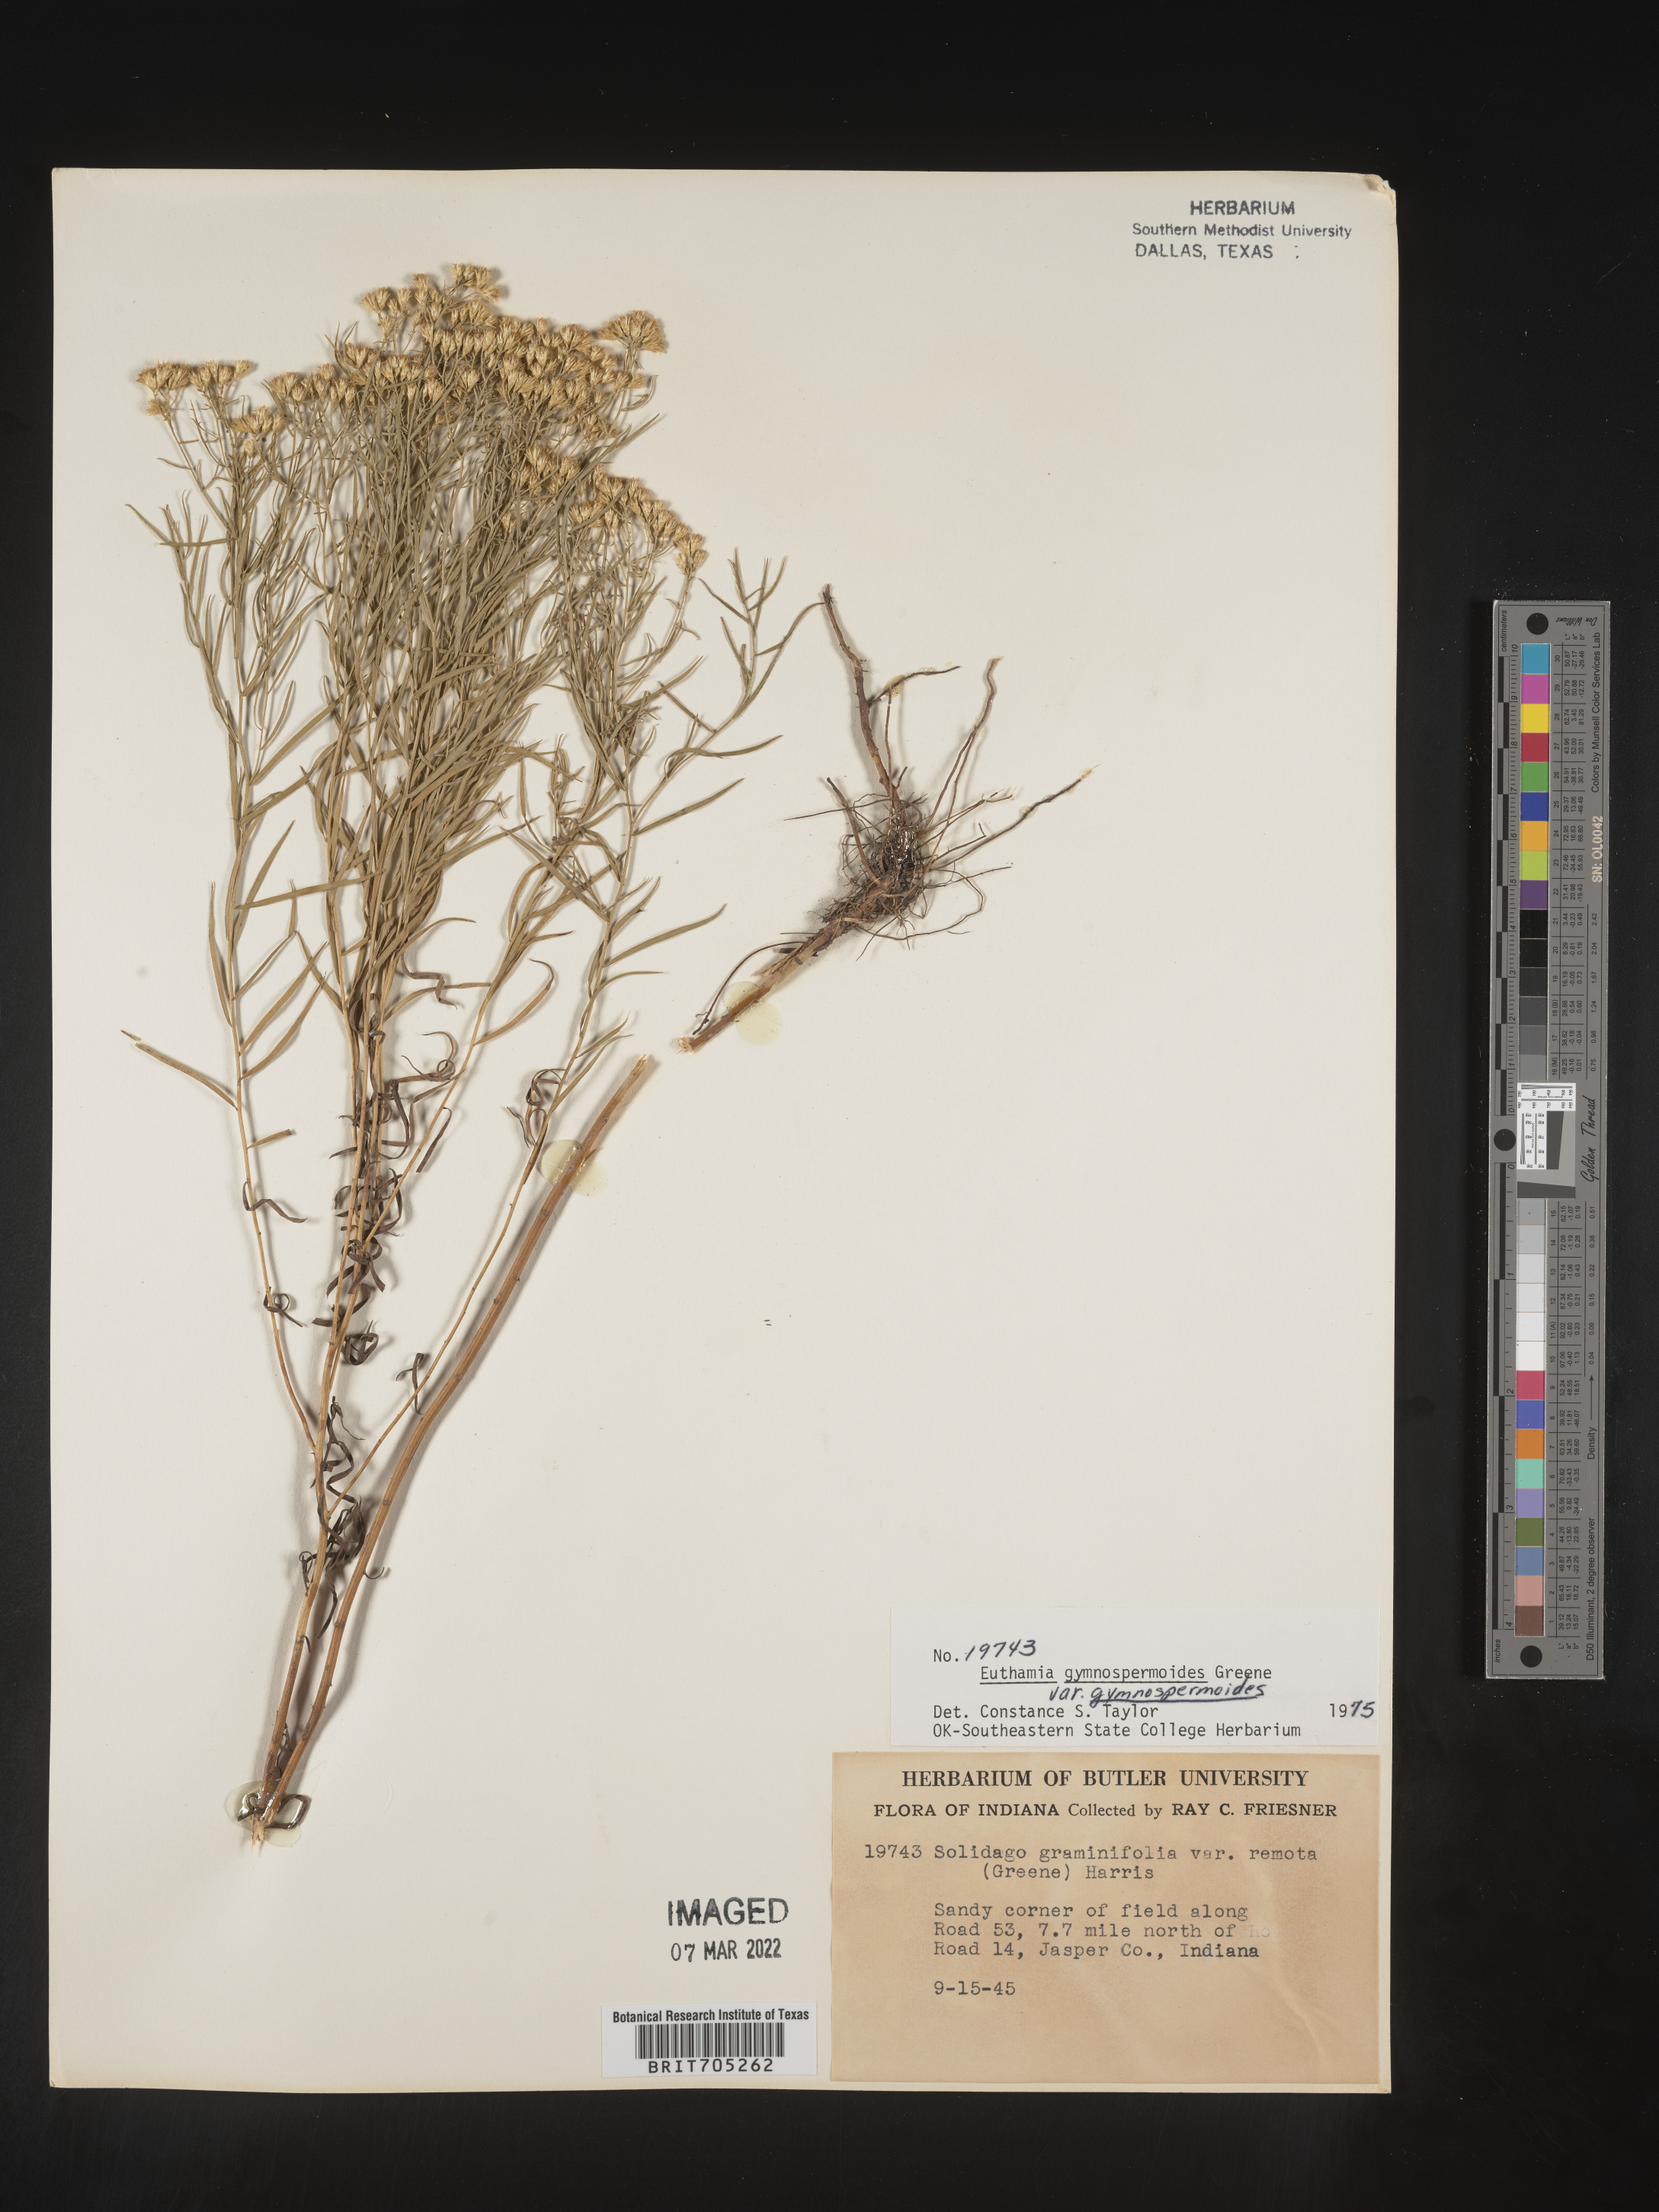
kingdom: Plantae
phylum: Tracheophyta
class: Magnoliopsida
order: Asterales
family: Asteraceae
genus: Euthamia
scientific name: Euthamia gymnospermoides
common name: Great plains goldentop
